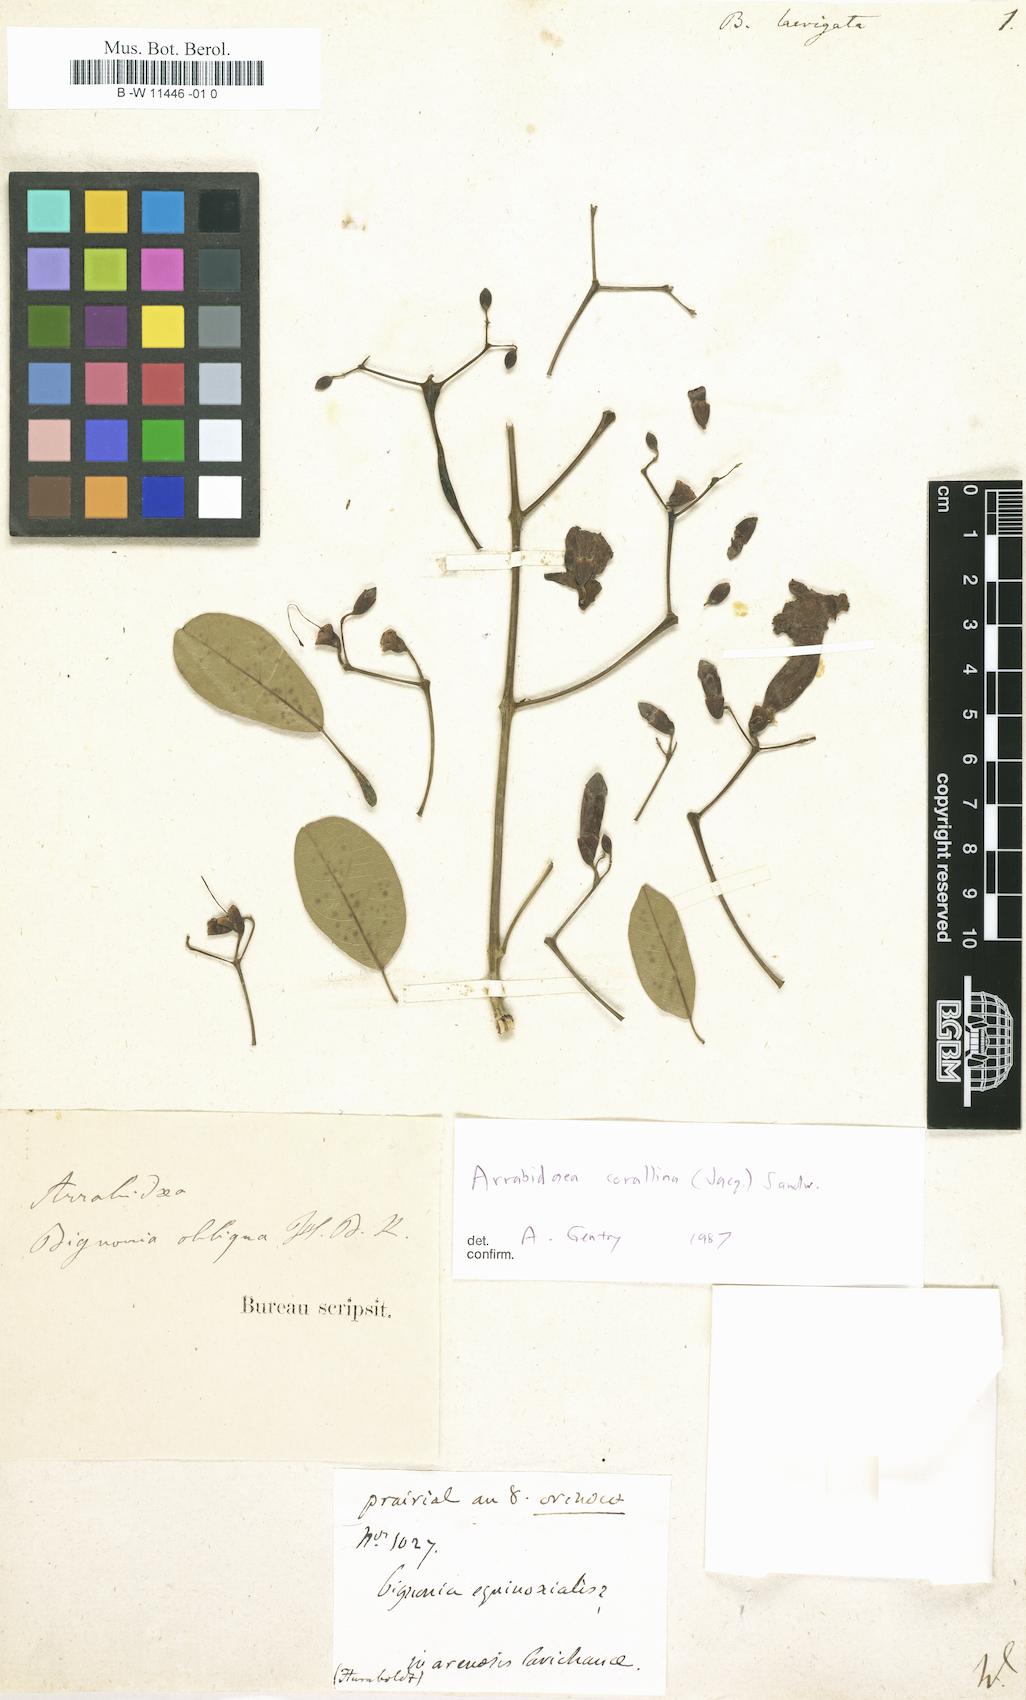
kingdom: Plantae
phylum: Tracheophyta
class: Magnoliopsida
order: Lamiales
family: Bignoniaceae
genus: Mansoa
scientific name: Mansoa hymenaea
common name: Membranous garlic vine
